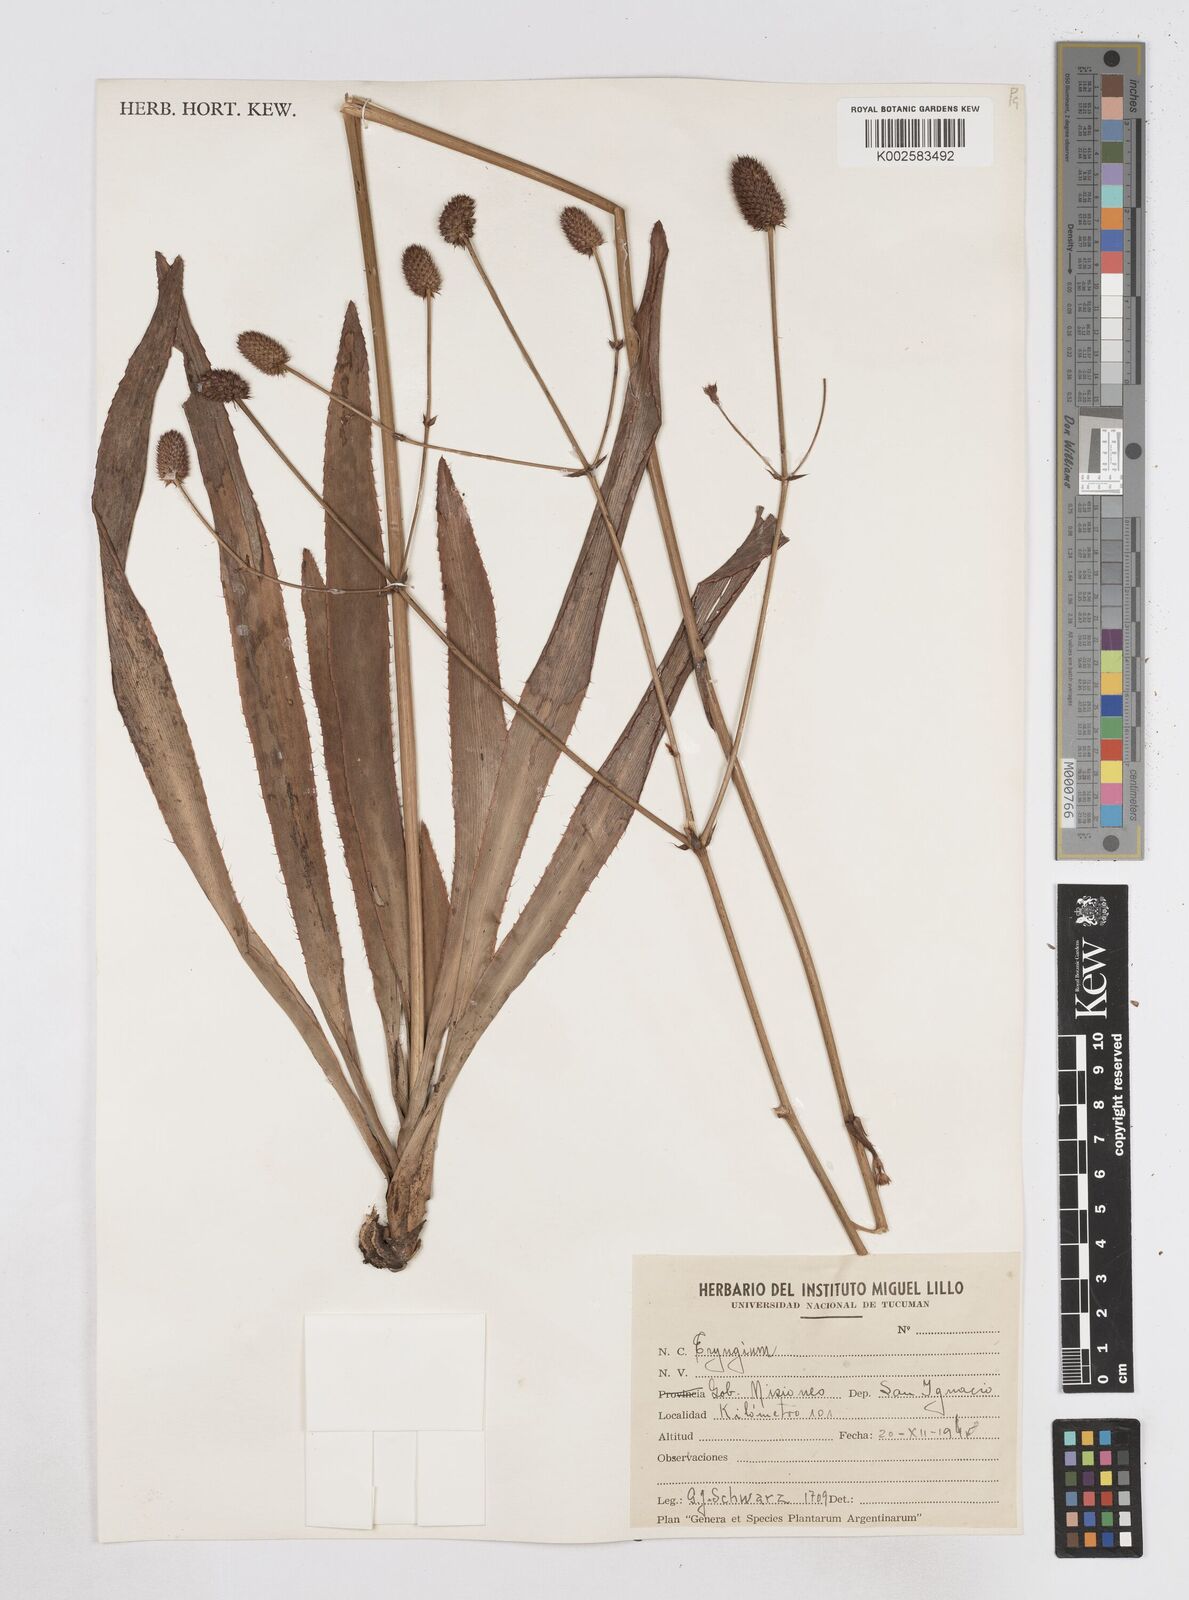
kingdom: Plantae
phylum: Tracheophyta
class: Magnoliopsida
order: Apiales
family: Apiaceae
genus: Eryngium
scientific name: Eryngium
